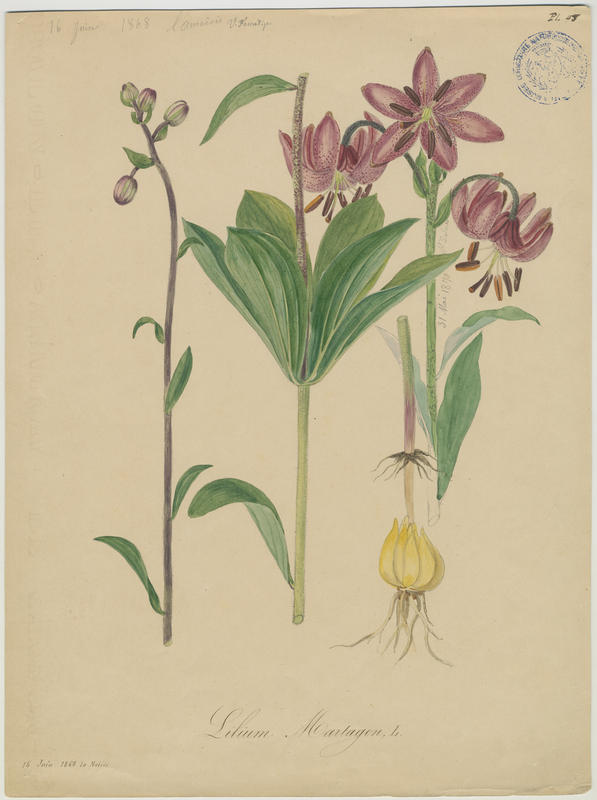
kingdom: Plantae
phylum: Tracheophyta
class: Liliopsida
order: Liliales
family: Liliaceae
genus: Lilium
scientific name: Lilium martagon
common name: Martagon lily
